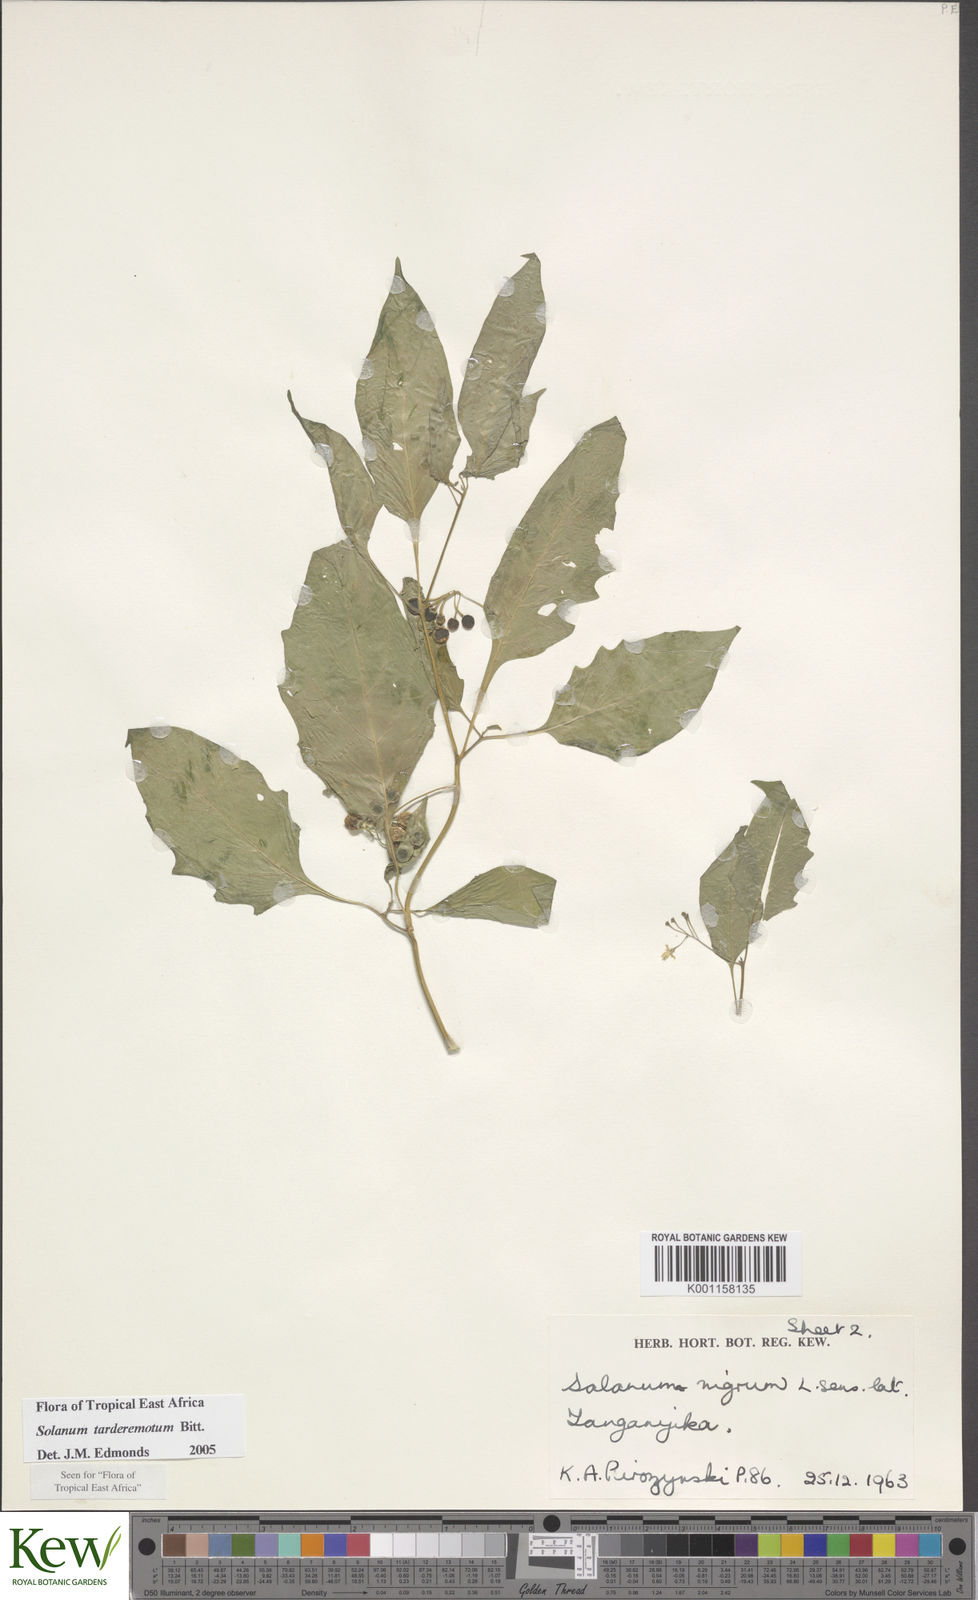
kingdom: Plantae
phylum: Tracheophyta
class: Magnoliopsida
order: Solanales
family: Solanaceae
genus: Solanum
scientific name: Solanum tarderemotum
